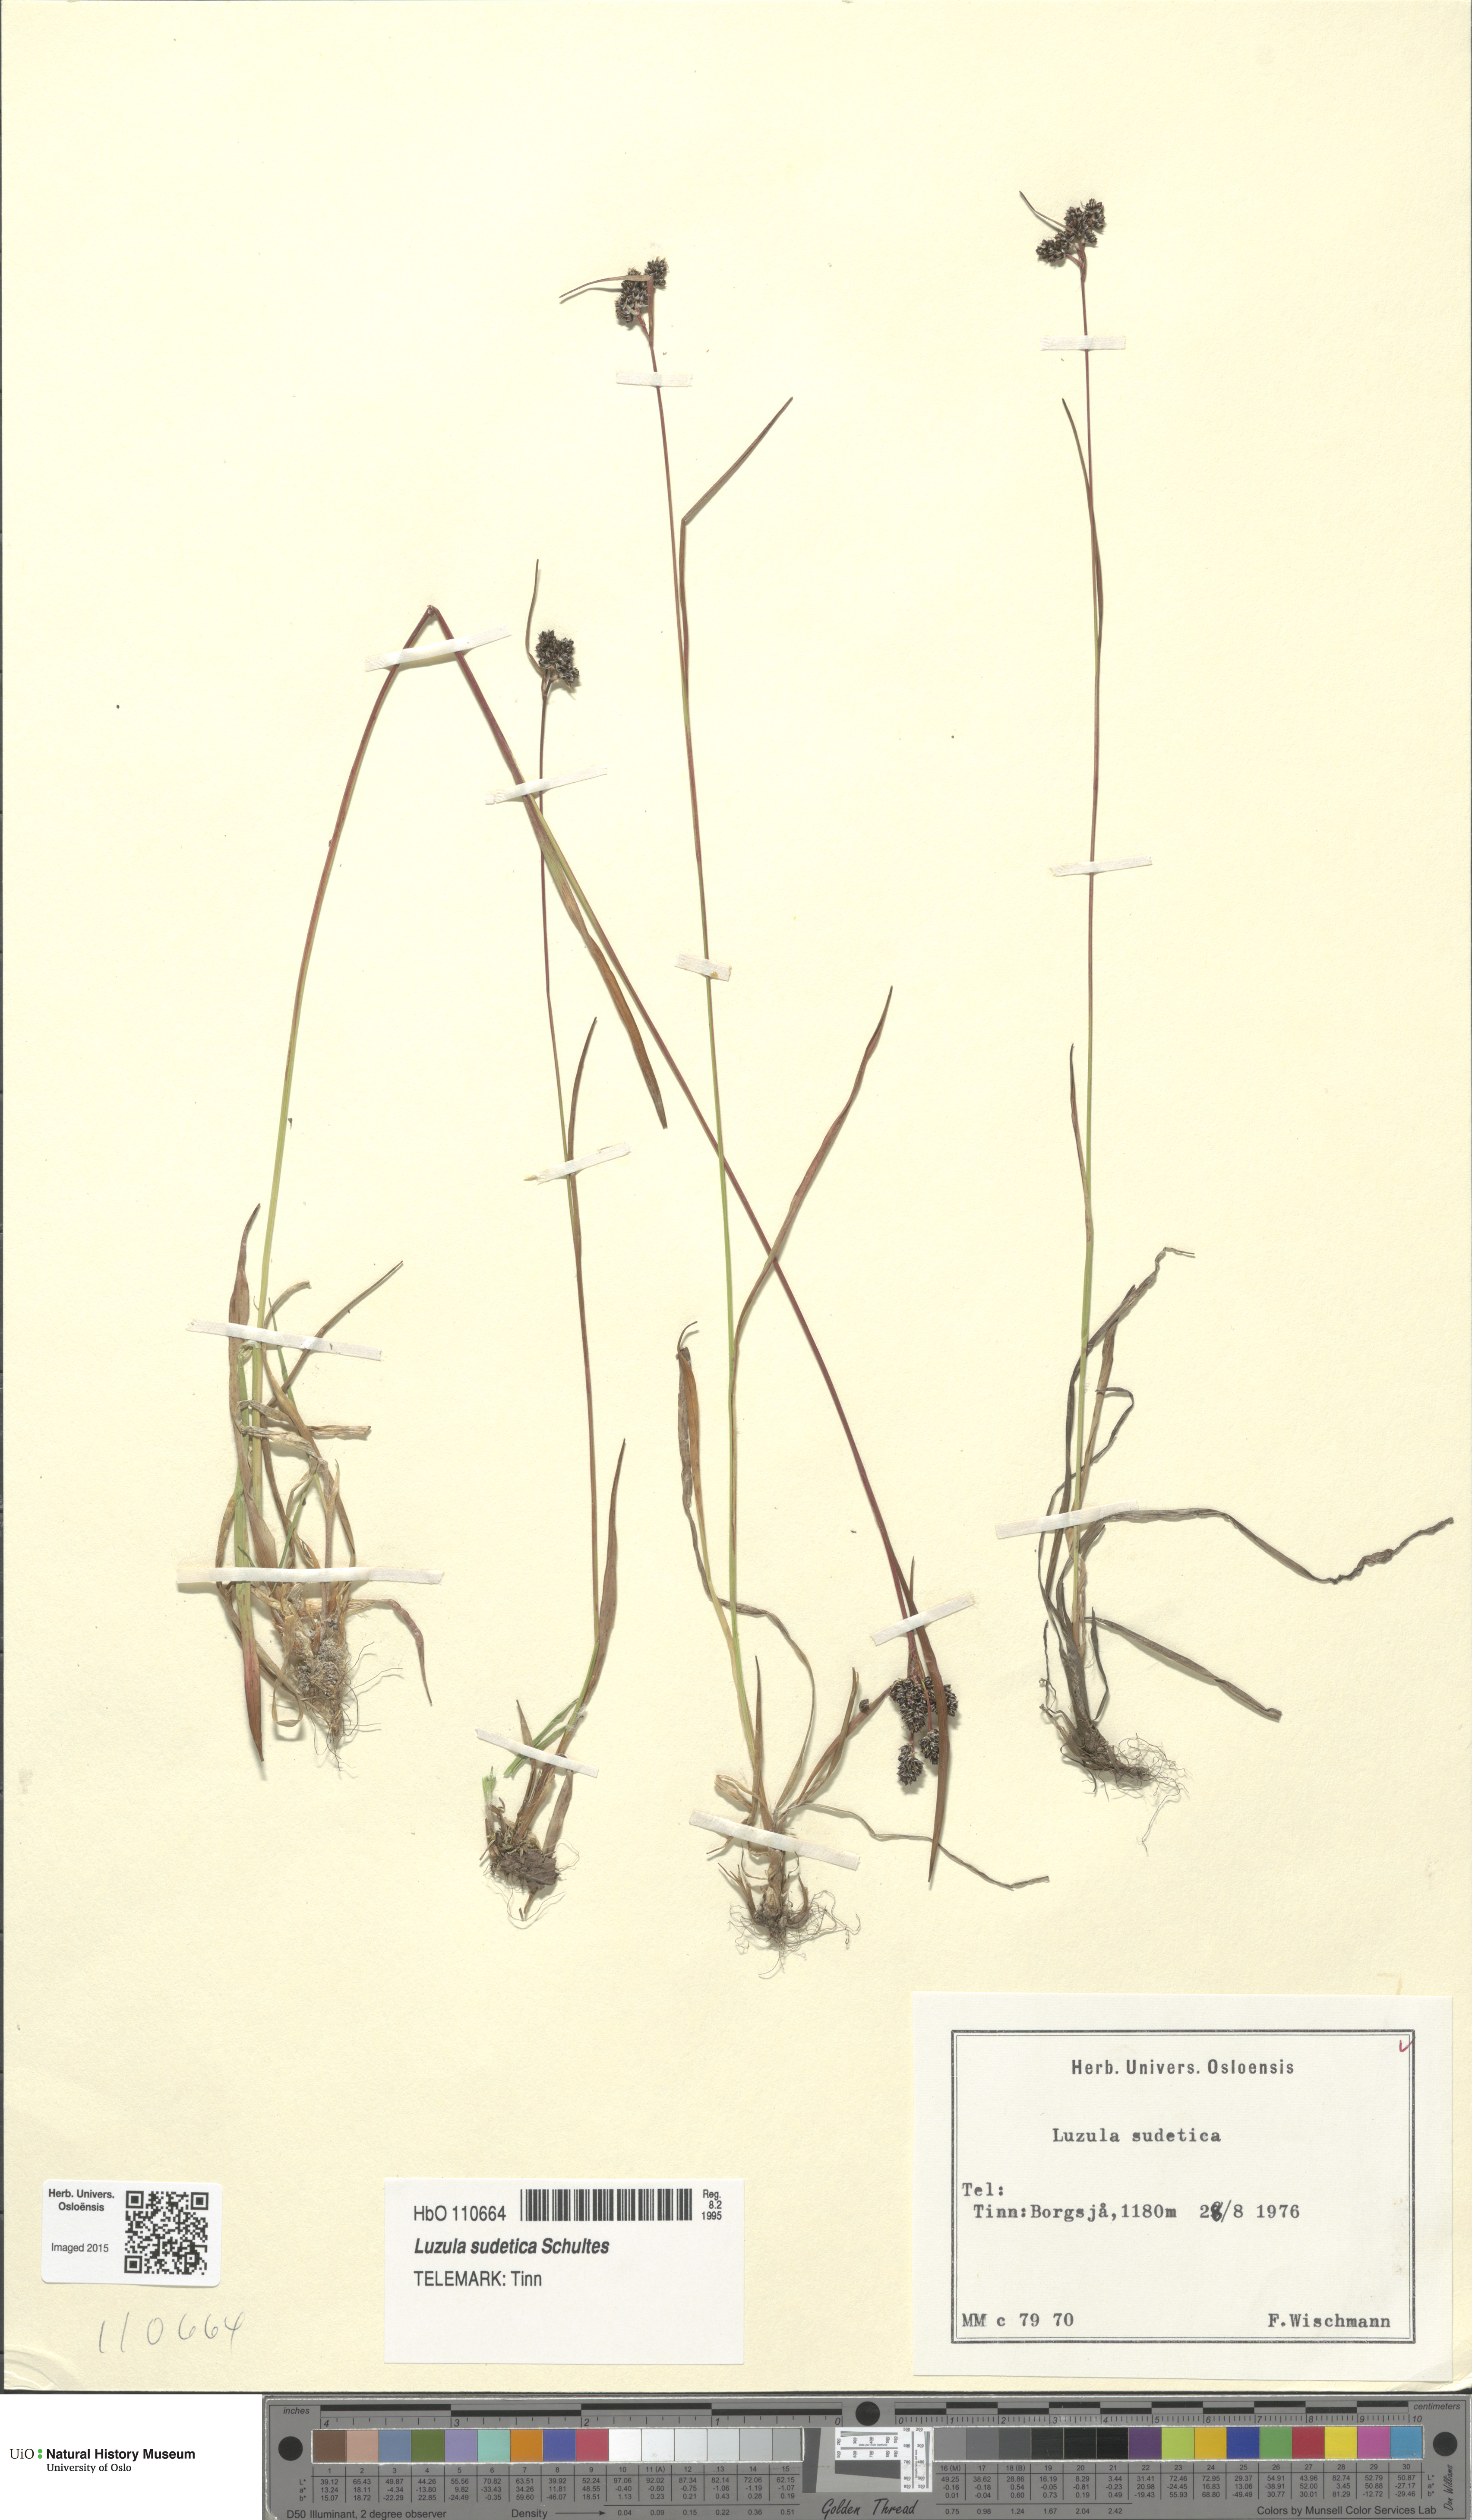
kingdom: Plantae
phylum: Tracheophyta
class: Liliopsida
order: Poales
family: Juncaceae
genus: Luzula
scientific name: Luzula sudetica
